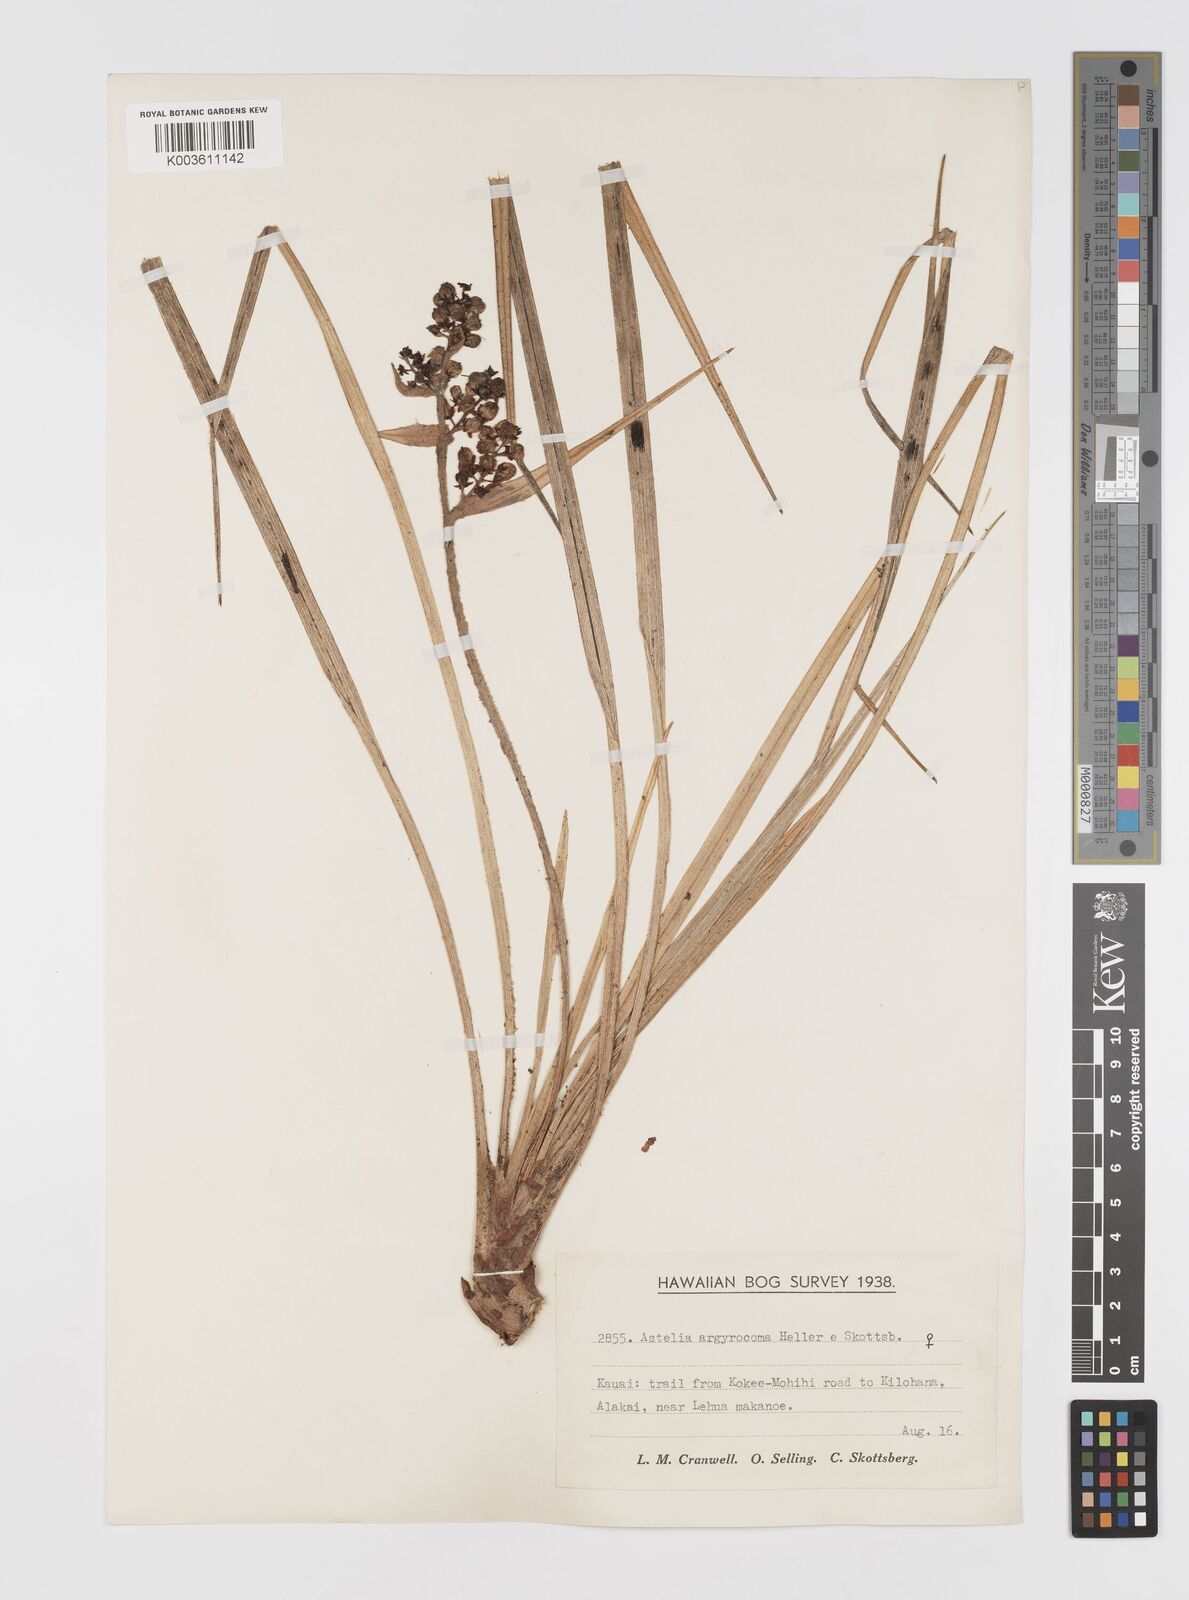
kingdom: Plantae
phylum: Tracheophyta
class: Liliopsida
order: Asparagales
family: Asteliaceae
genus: Astelia
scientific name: Astelia argyrocoma
